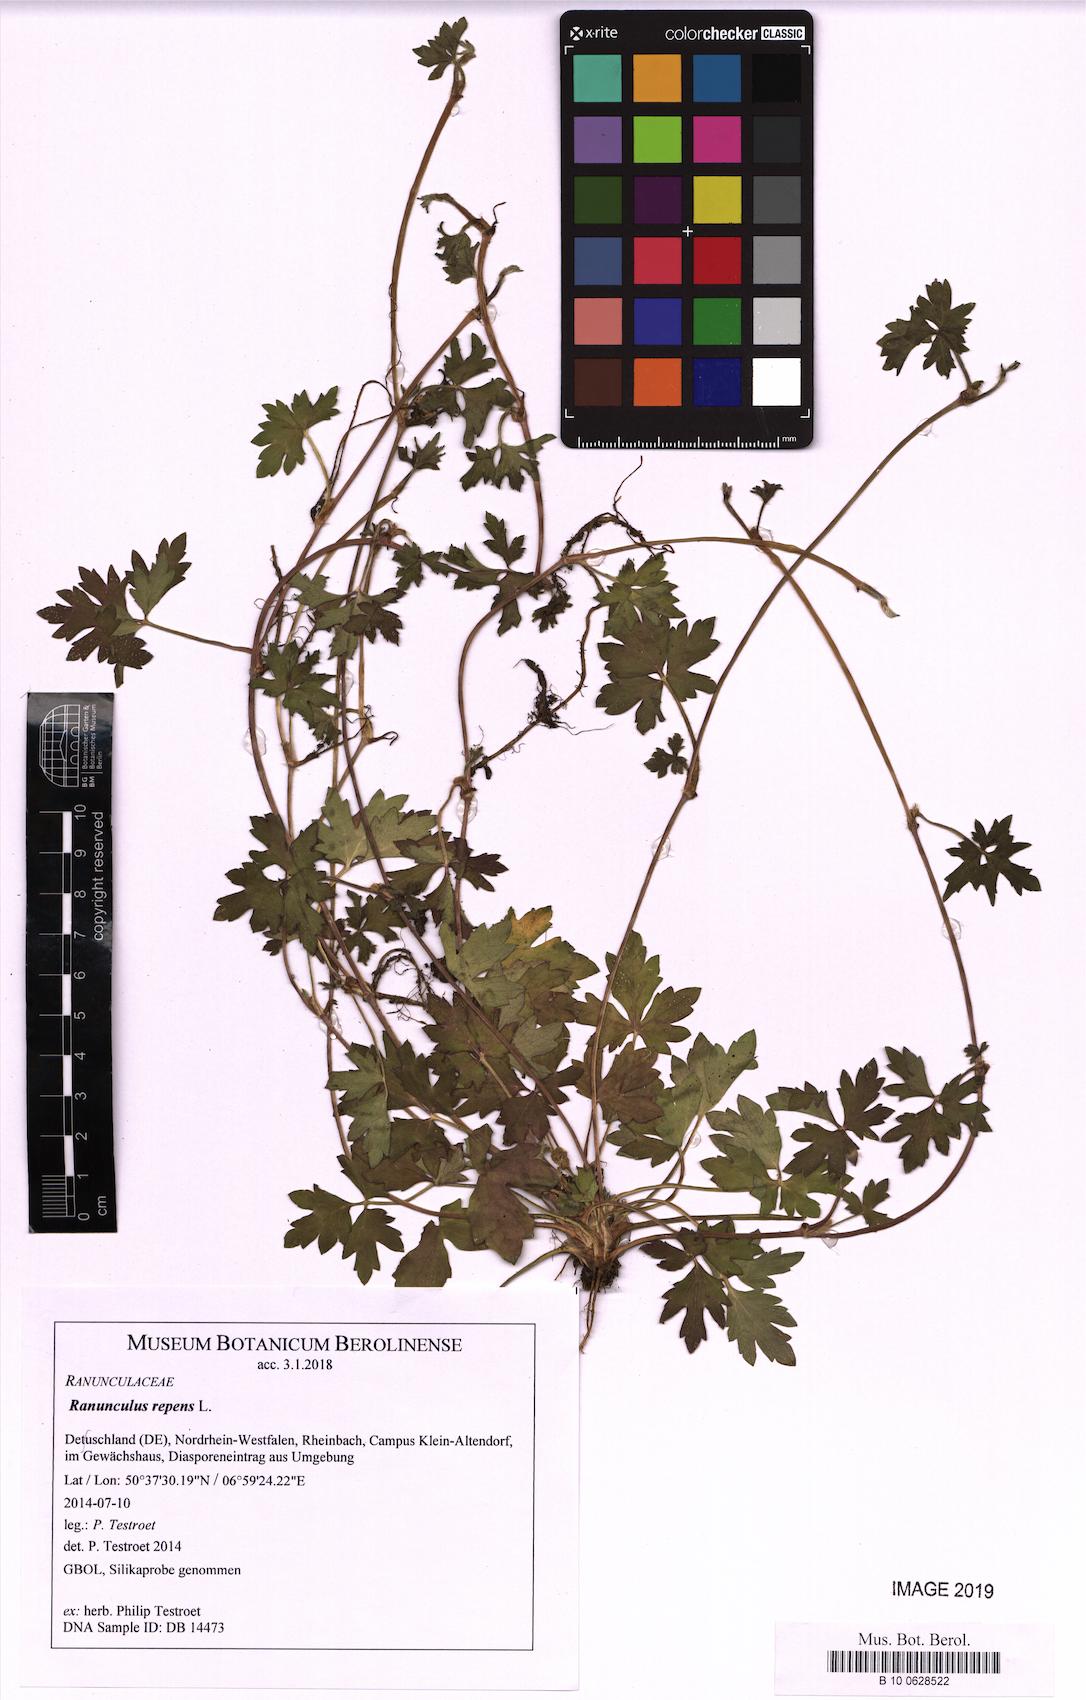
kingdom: Plantae
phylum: Tracheophyta
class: Magnoliopsida
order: Ranunculales
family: Ranunculaceae
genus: Ranunculus
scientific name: Ranunculus repens
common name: Creeping buttercup
